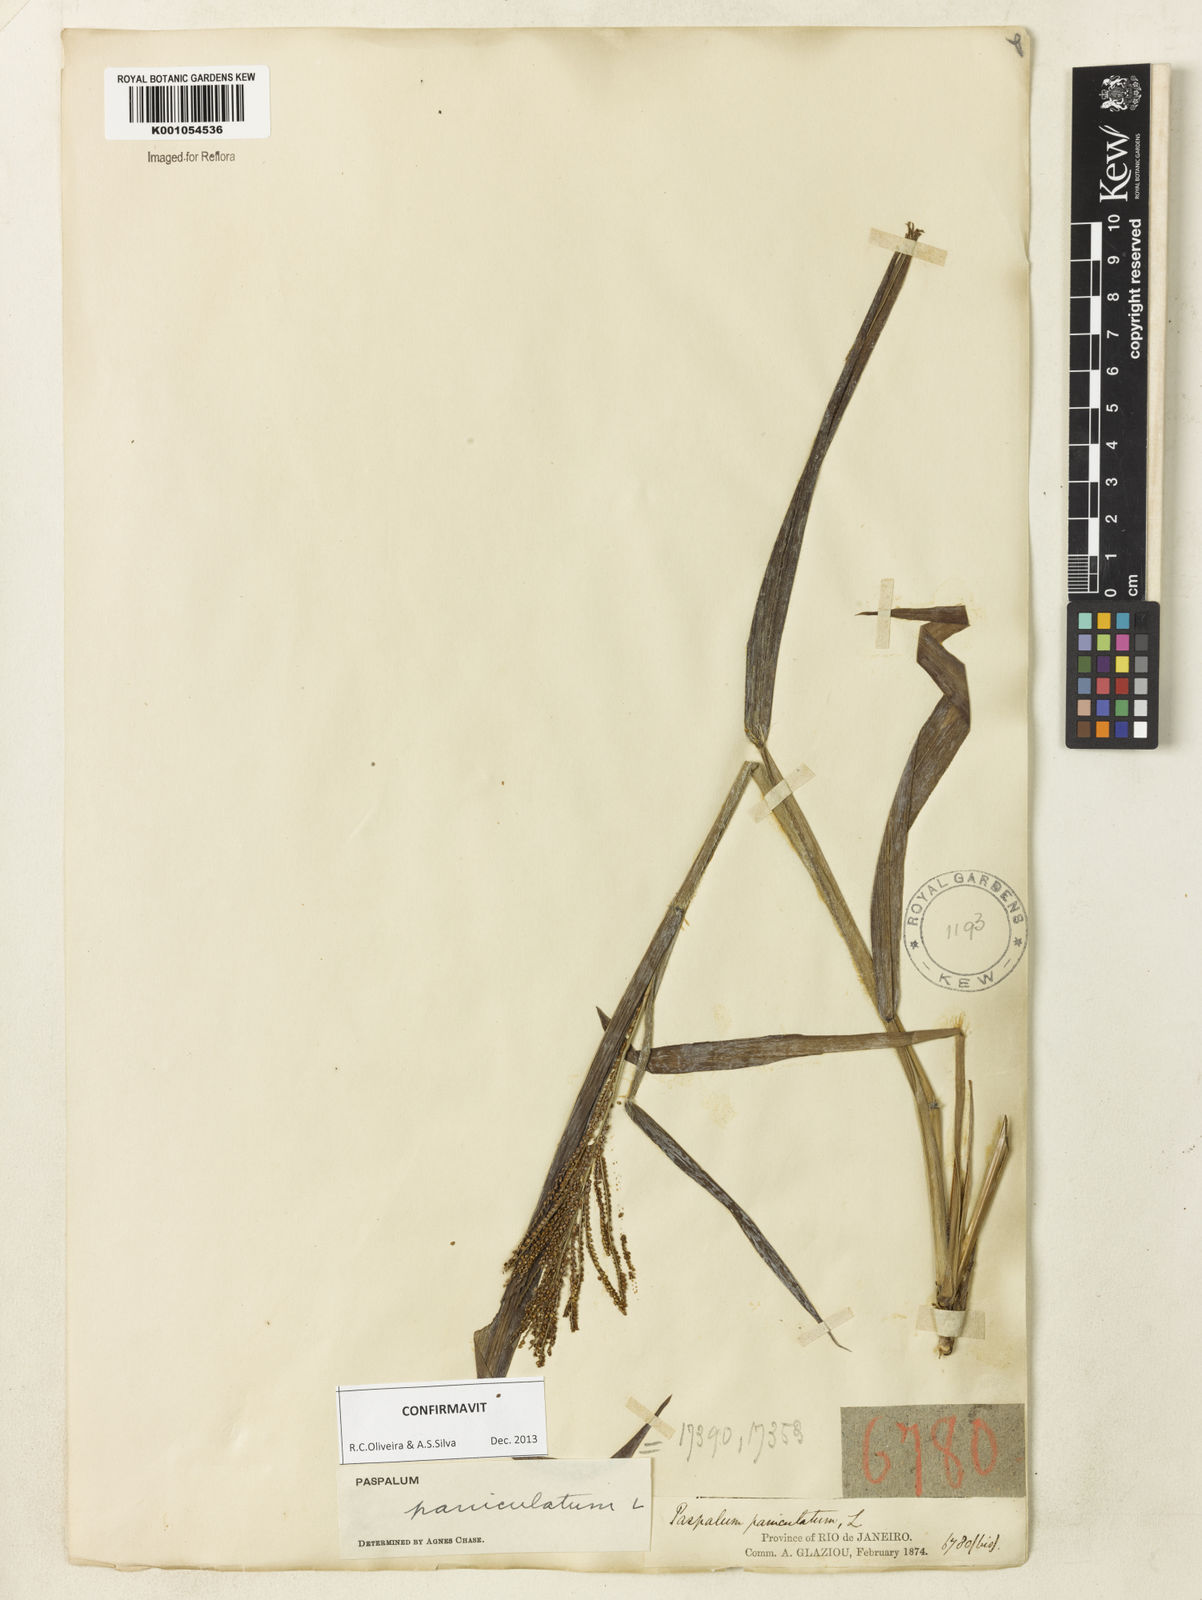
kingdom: Plantae
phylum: Tracheophyta
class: Liliopsida
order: Poales
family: Poaceae
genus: Paspalum
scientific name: Paspalum paniculatum
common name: Arrocillo
